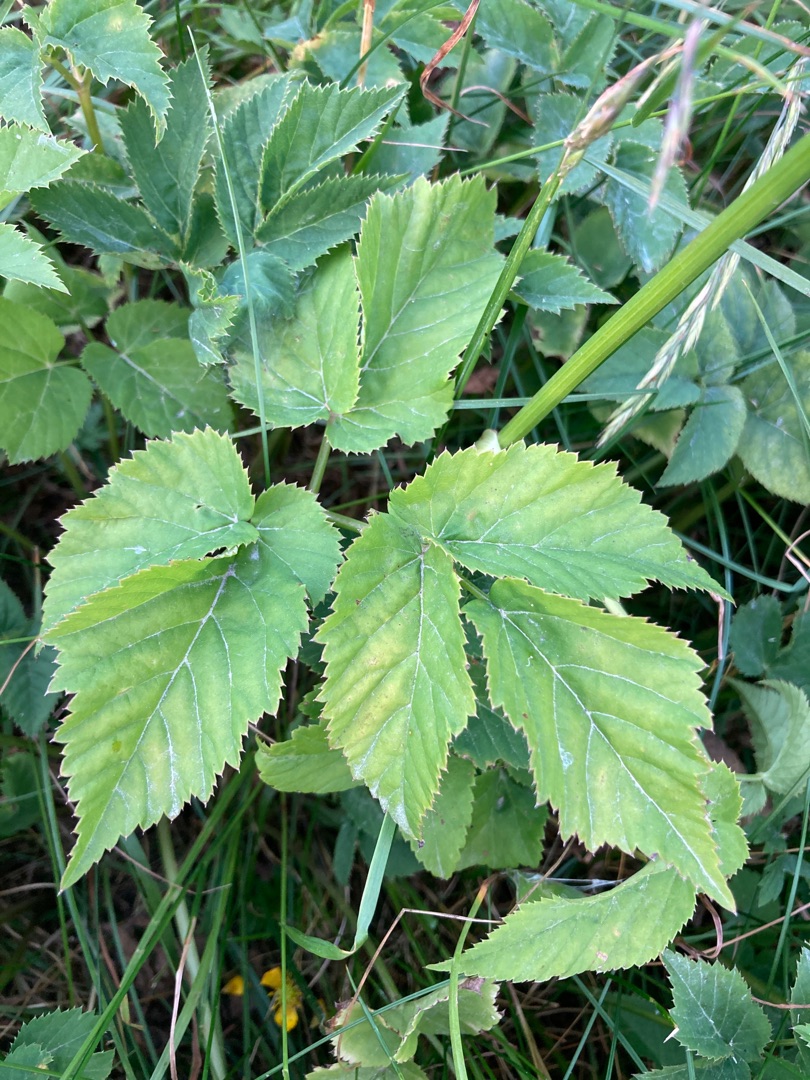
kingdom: Plantae
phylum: Tracheophyta
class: Magnoliopsida
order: Apiales
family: Apiaceae
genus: Aegopodium
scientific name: Aegopodium podagraria
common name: Skvalderkål
